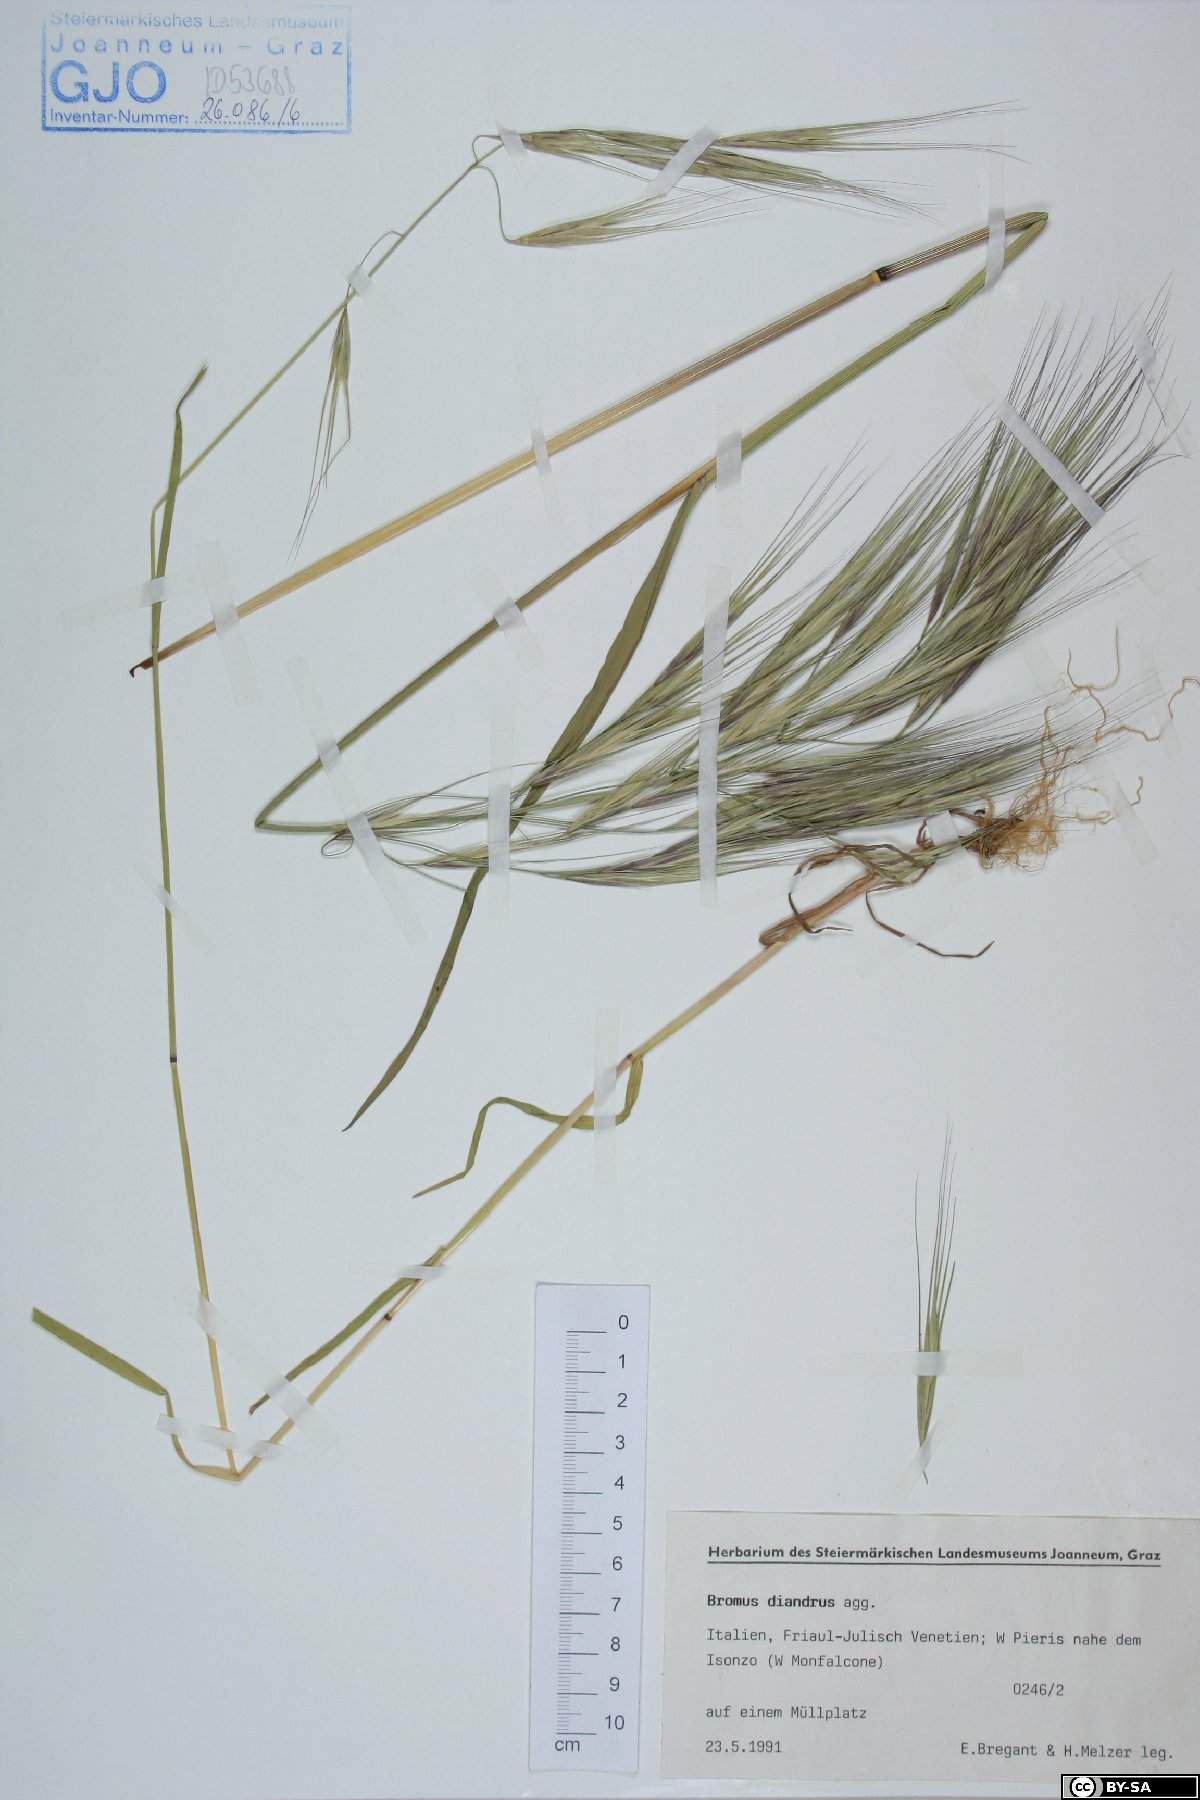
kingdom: Plantae
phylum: Tracheophyta
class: Liliopsida
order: Poales
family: Poaceae
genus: Bromus
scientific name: Bromus diandrus
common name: Ripgut brome
